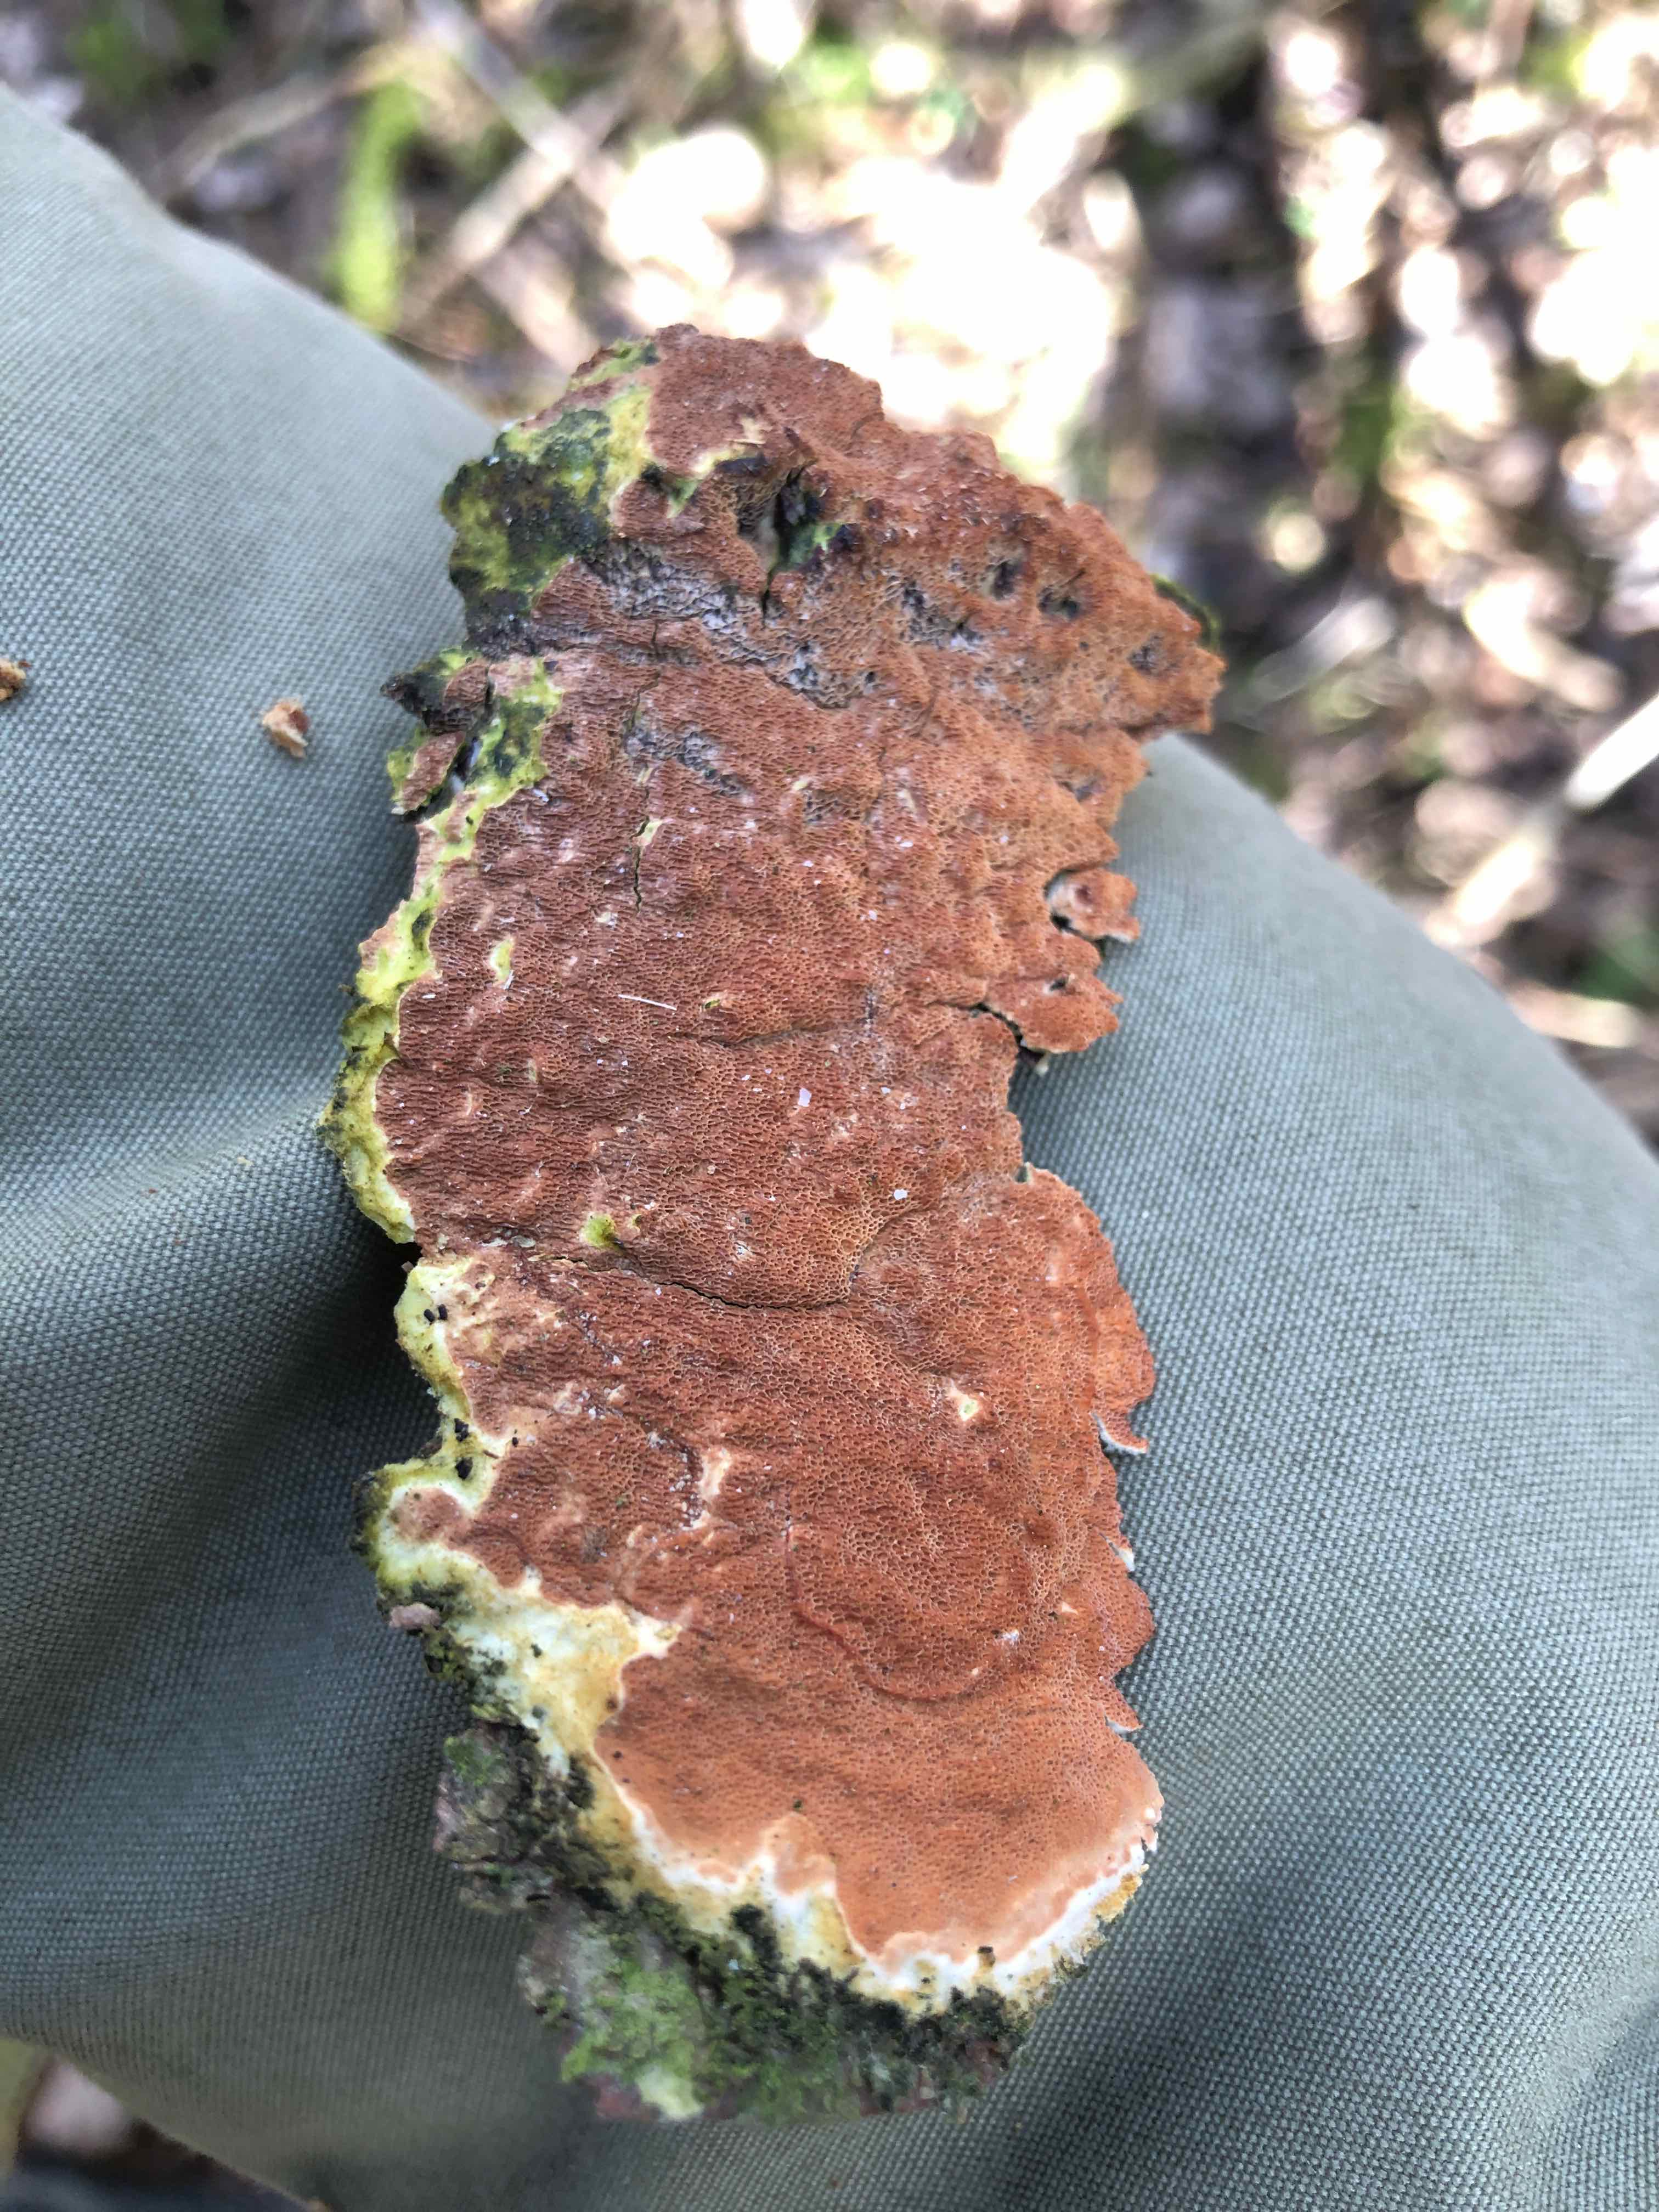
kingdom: Fungi
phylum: Basidiomycota
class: Agaricomycetes
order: Polyporales
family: Irpicaceae
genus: Meruliopsis
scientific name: Meruliopsis taxicola
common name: purpurbrun foldporesvamp
